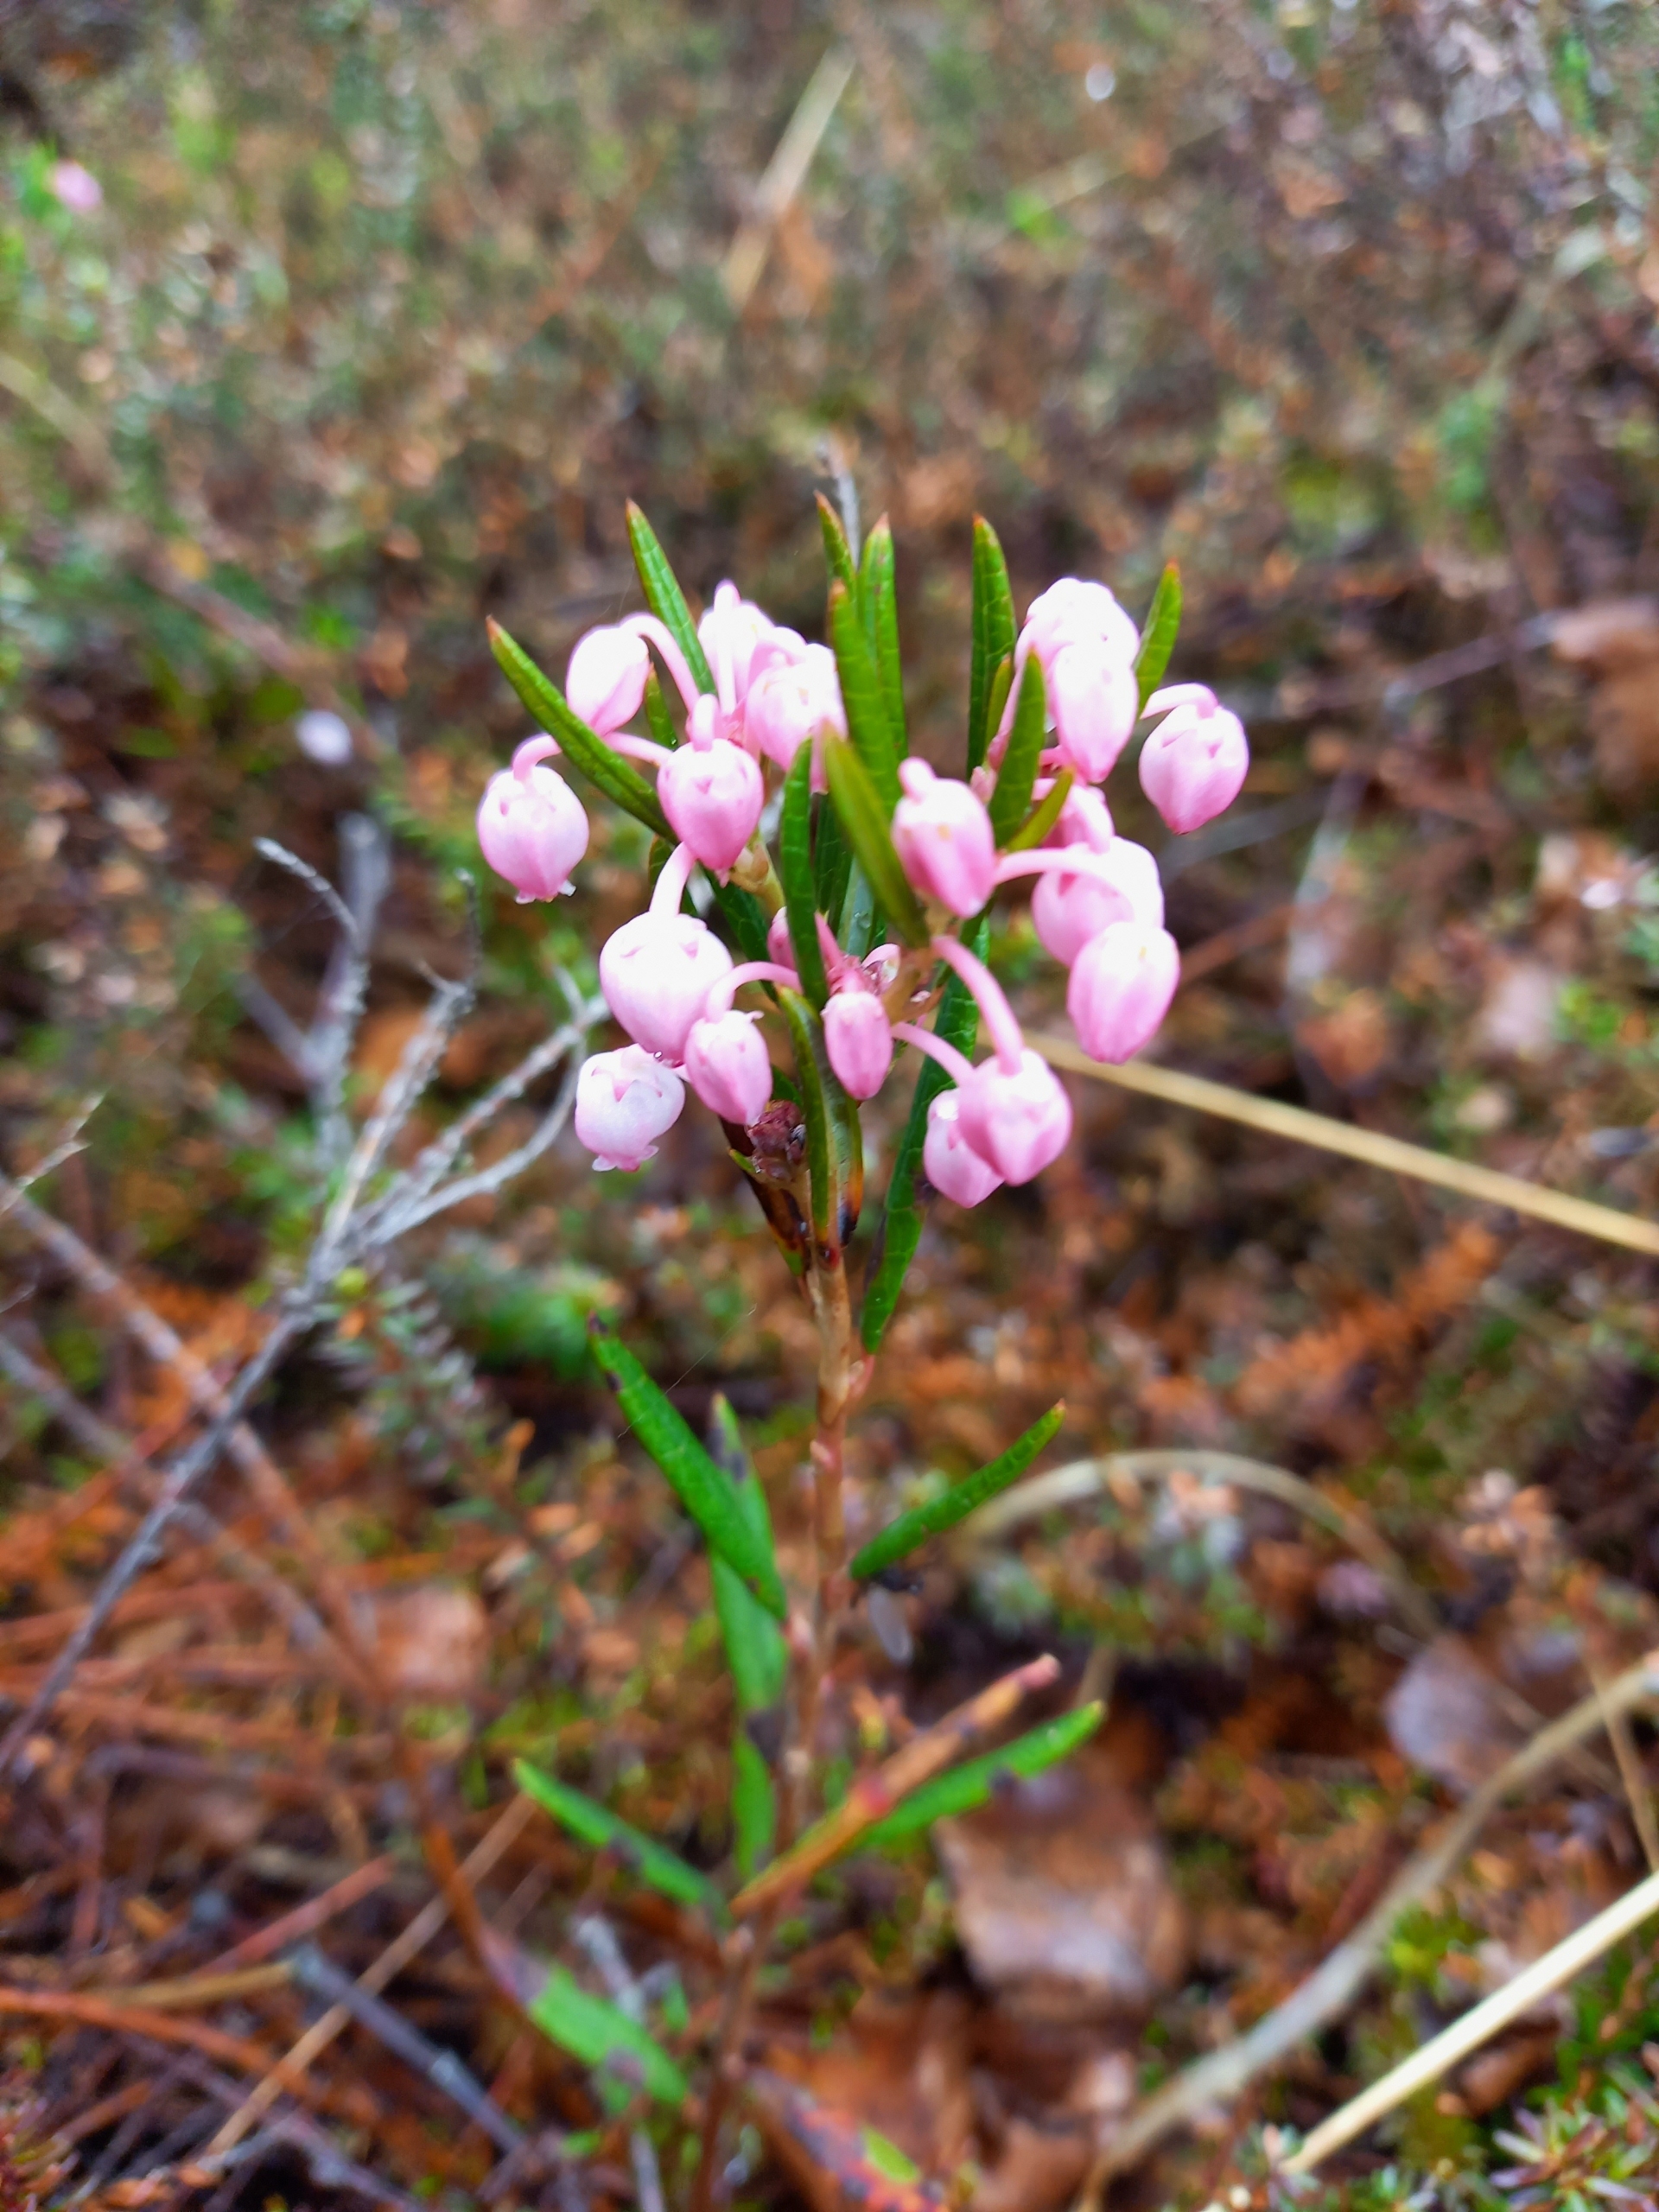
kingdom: Plantae
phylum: Tracheophyta
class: Magnoliopsida
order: Ericales
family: Ericaceae
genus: Andromeda
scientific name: Andromeda polifolia
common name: Rosmarinlyng
